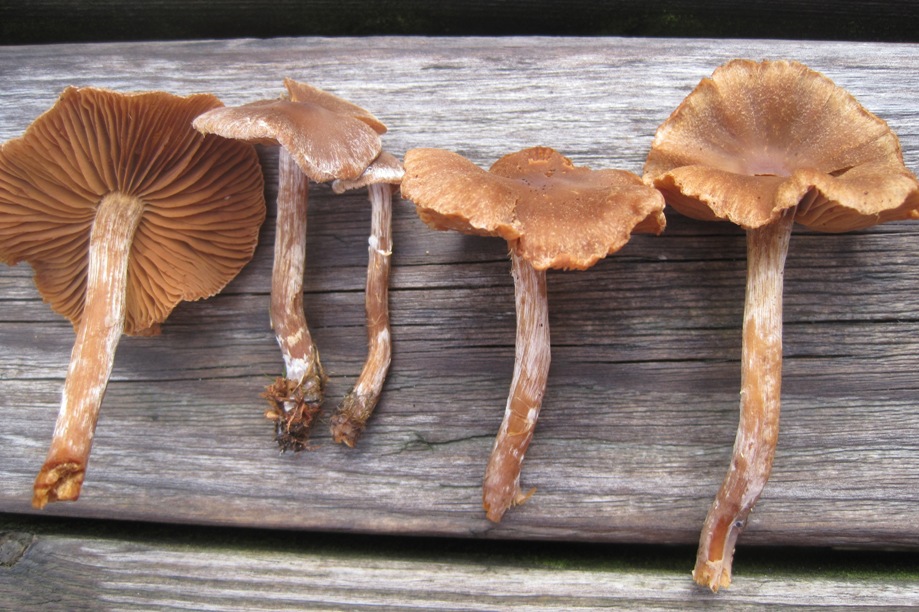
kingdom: Fungi
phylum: Basidiomycota
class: Agaricomycetes
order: Agaricales
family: Cortinariaceae
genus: Cortinarius
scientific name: Cortinarius
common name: pelargonie-slørhat
